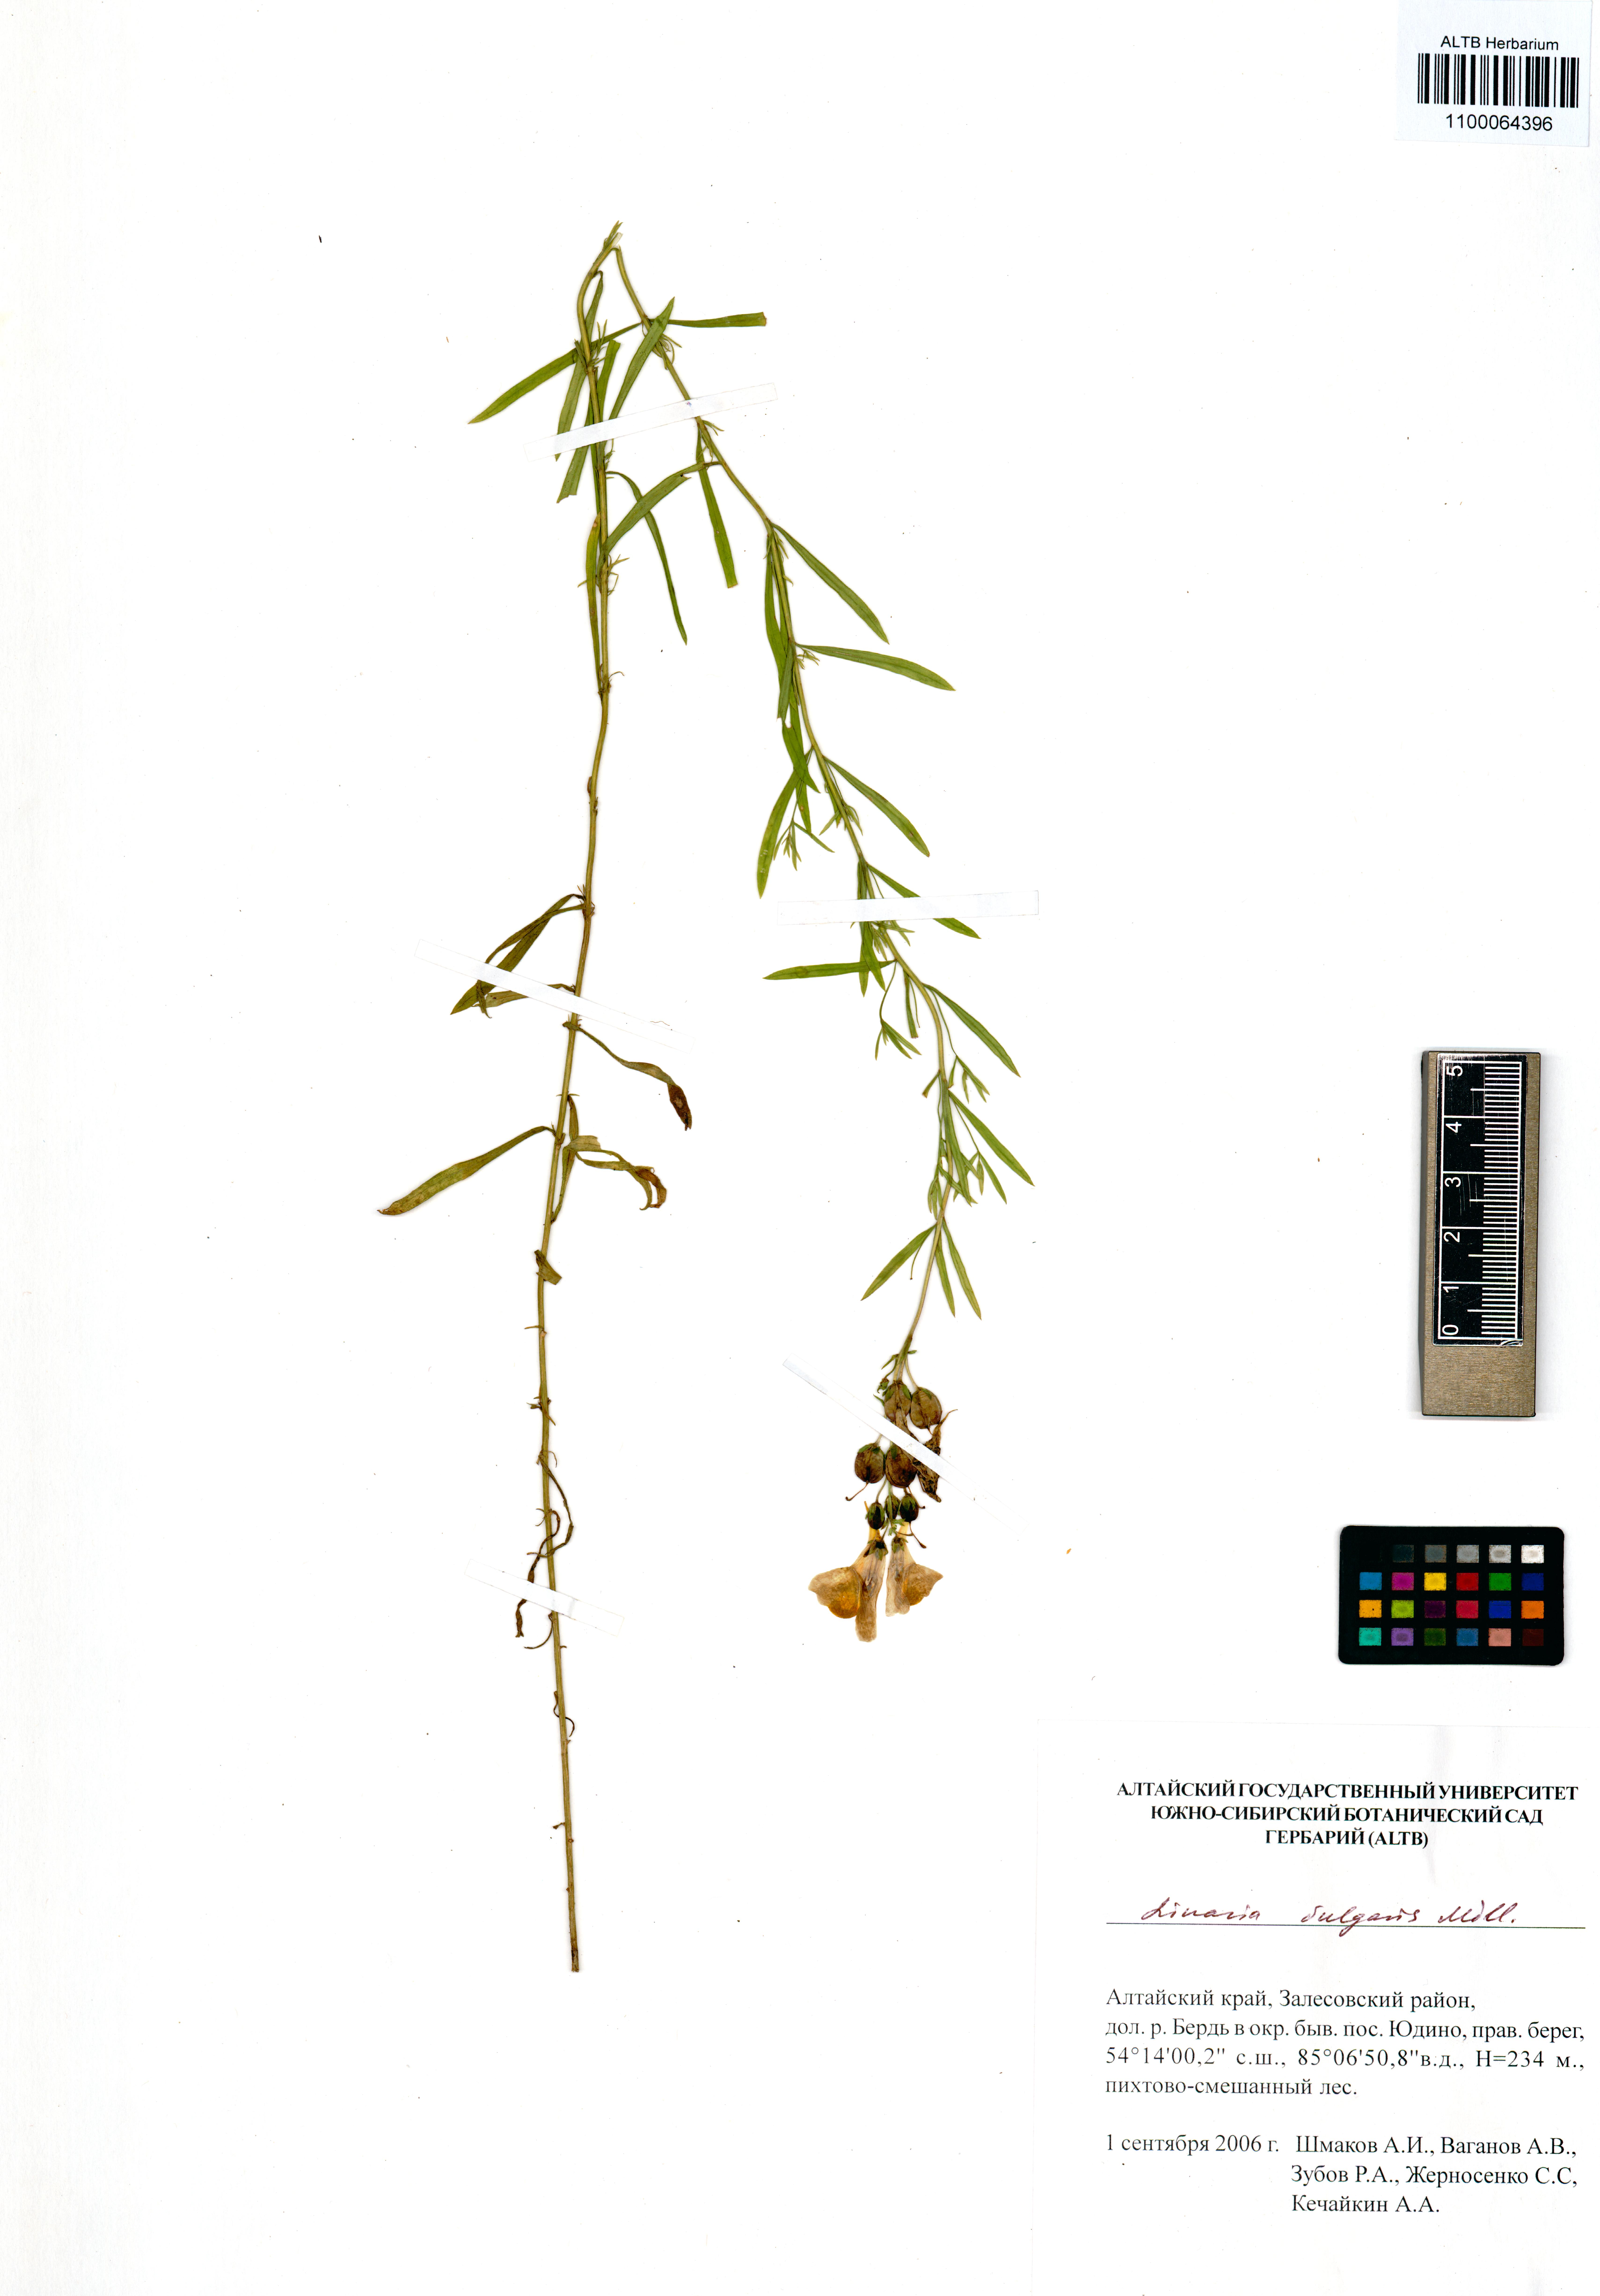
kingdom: Plantae
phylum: Tracheophyta
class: Magnoliopsida
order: Lamiales
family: Plantaginaceae
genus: Linaria
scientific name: Linaria vulgaris
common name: Butter and eggs
